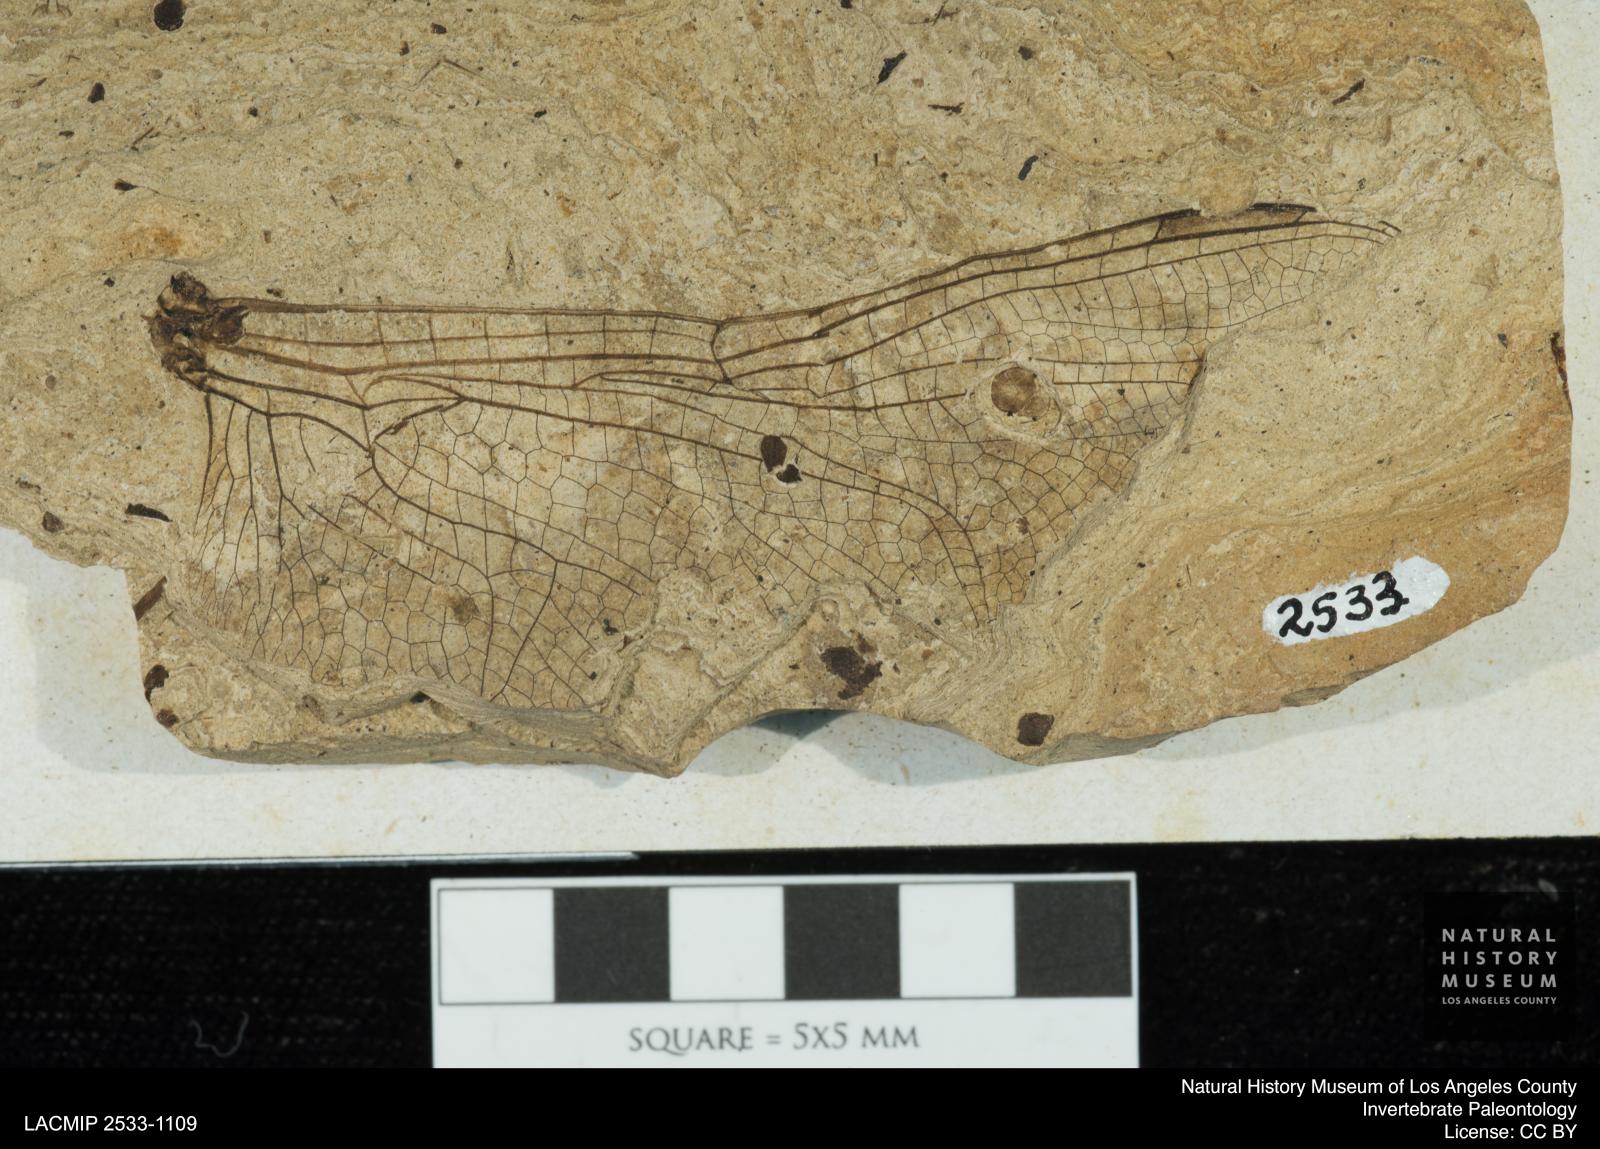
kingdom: Animalia
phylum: Arthropoda
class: Insecta
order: Odonata
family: Libellulidae
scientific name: Libellulidae
